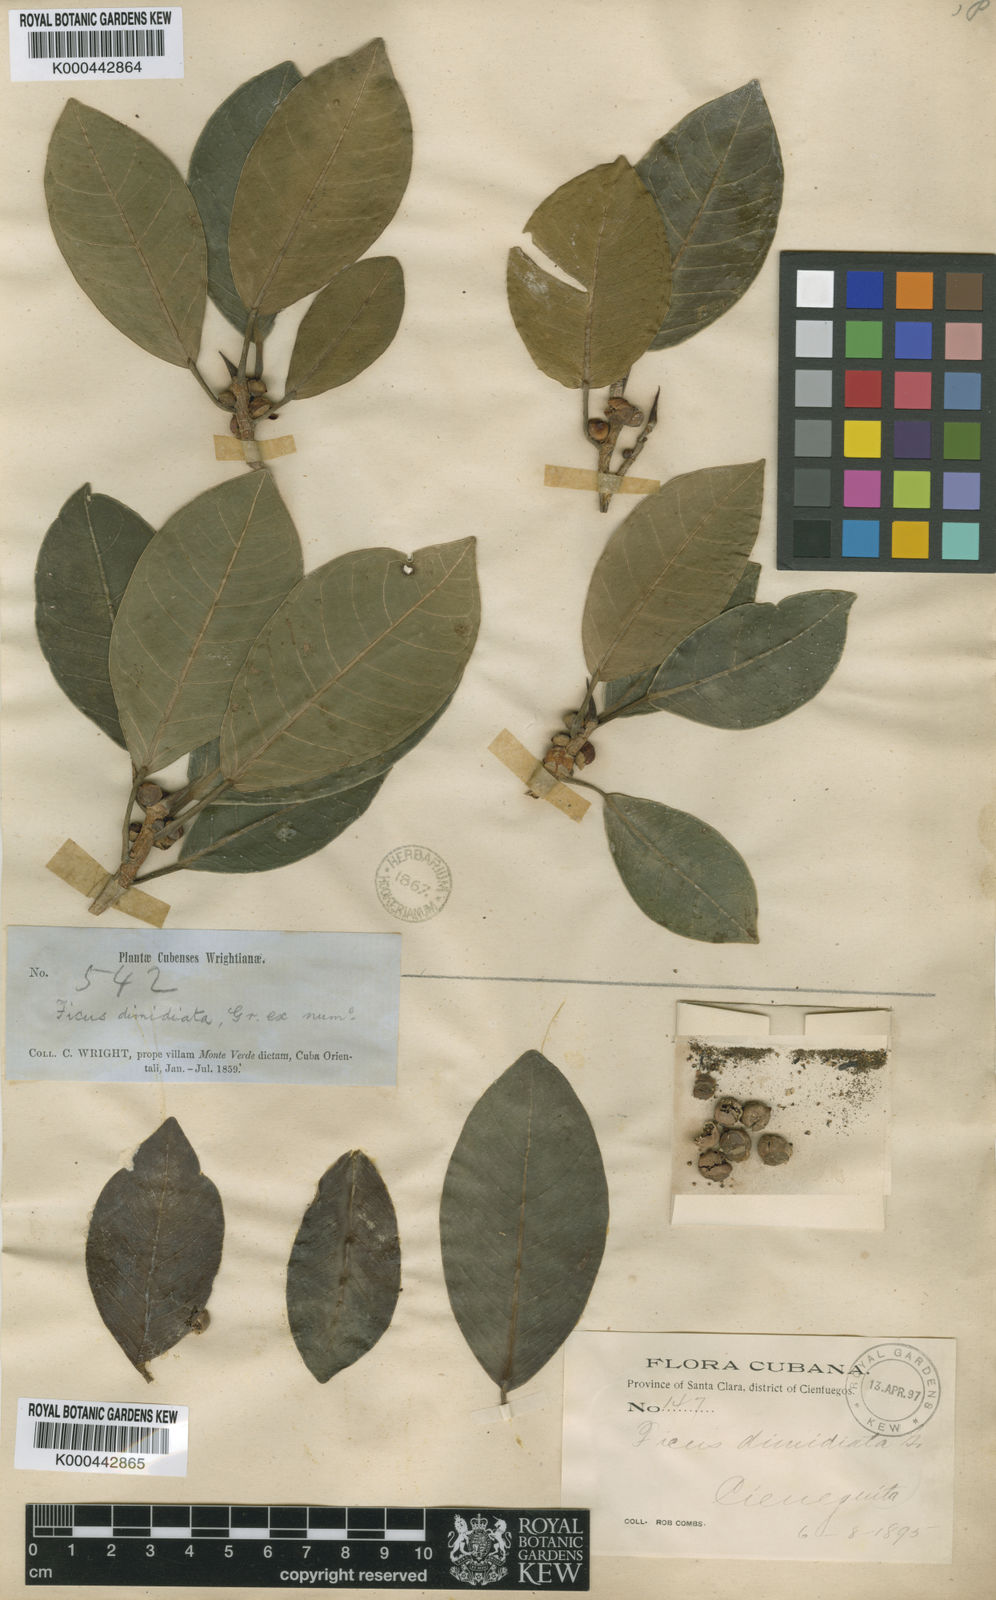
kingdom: Plantae
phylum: Tracheophyta
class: Magnoliopsida
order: Rosales
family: Moraceae
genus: Ficus
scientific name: Ficus aurea
